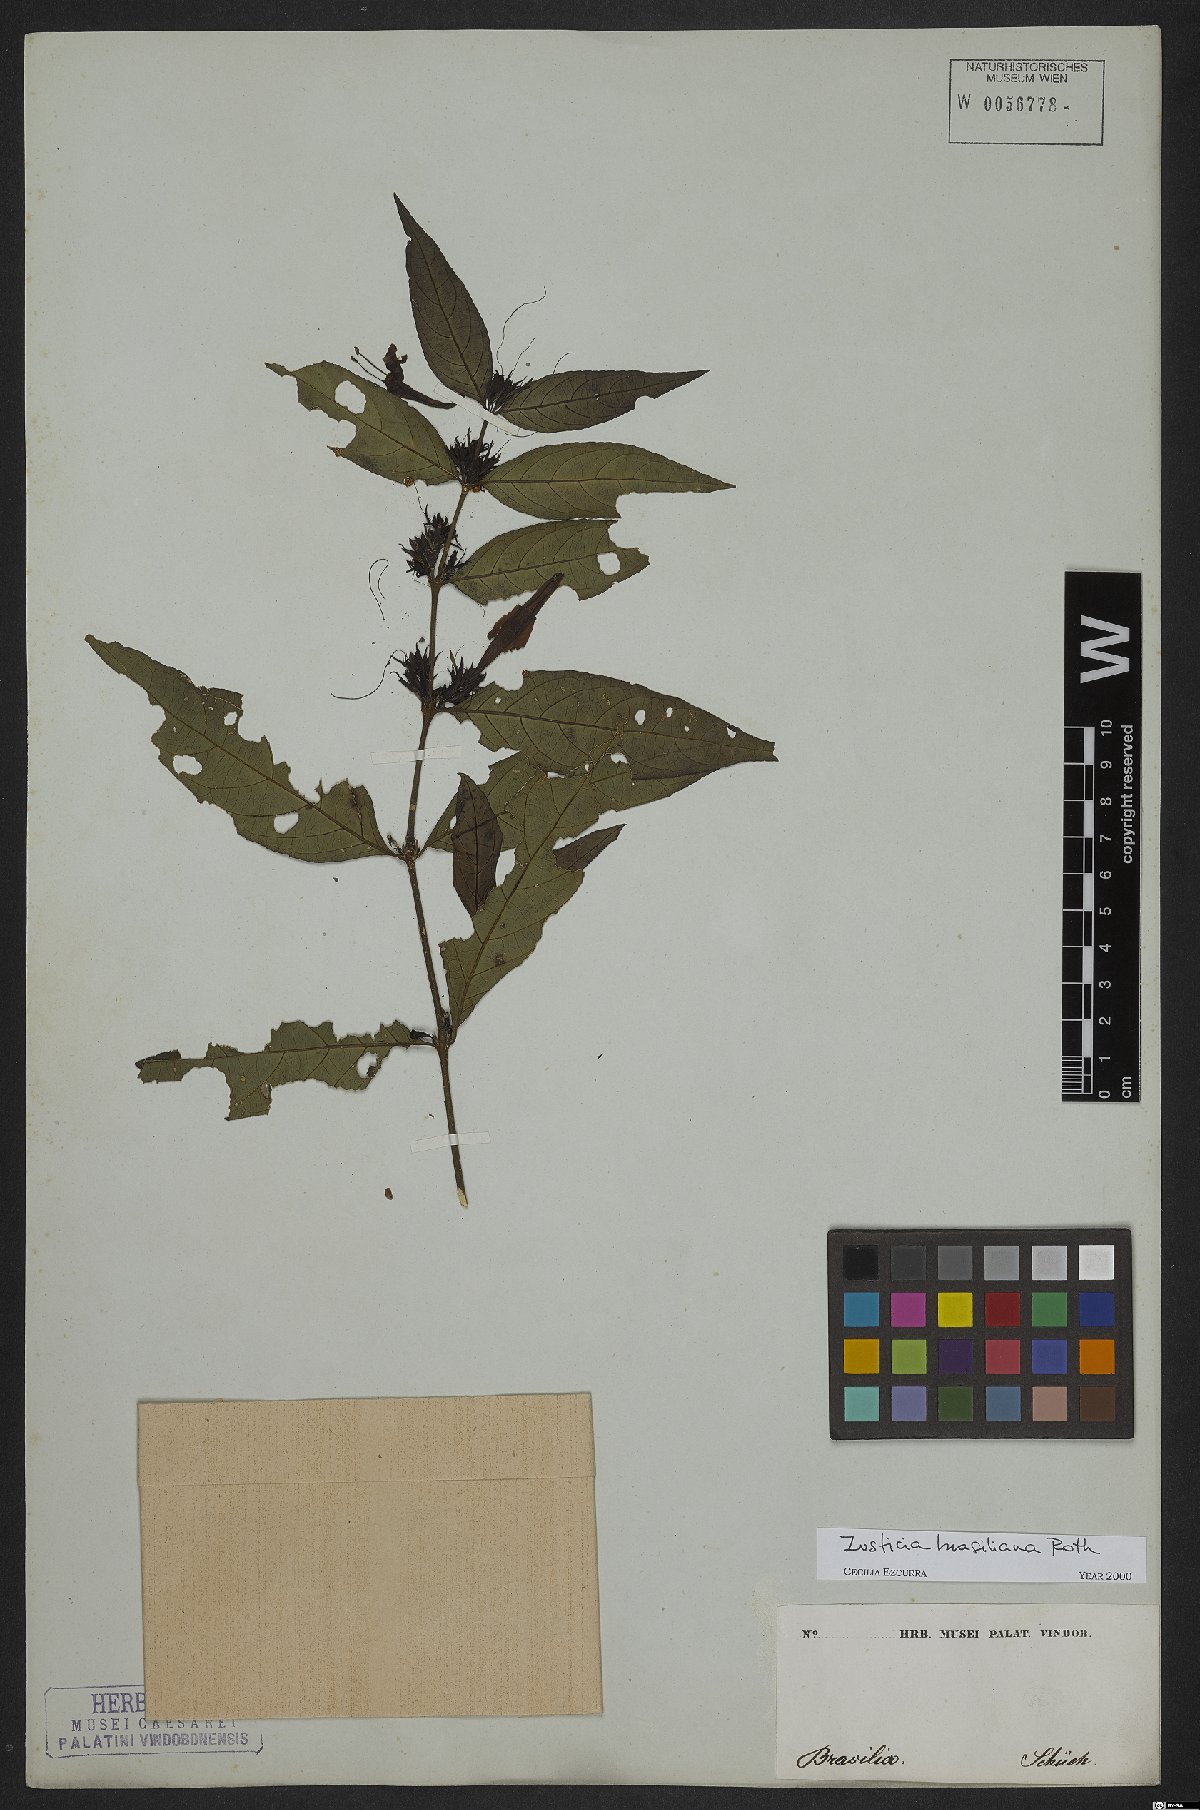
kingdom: Plantae
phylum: Tracheophyta
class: Magnoliopsida
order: Lamiales
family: Acanthaceae
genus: Justicia
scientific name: Justicia brasiliana
